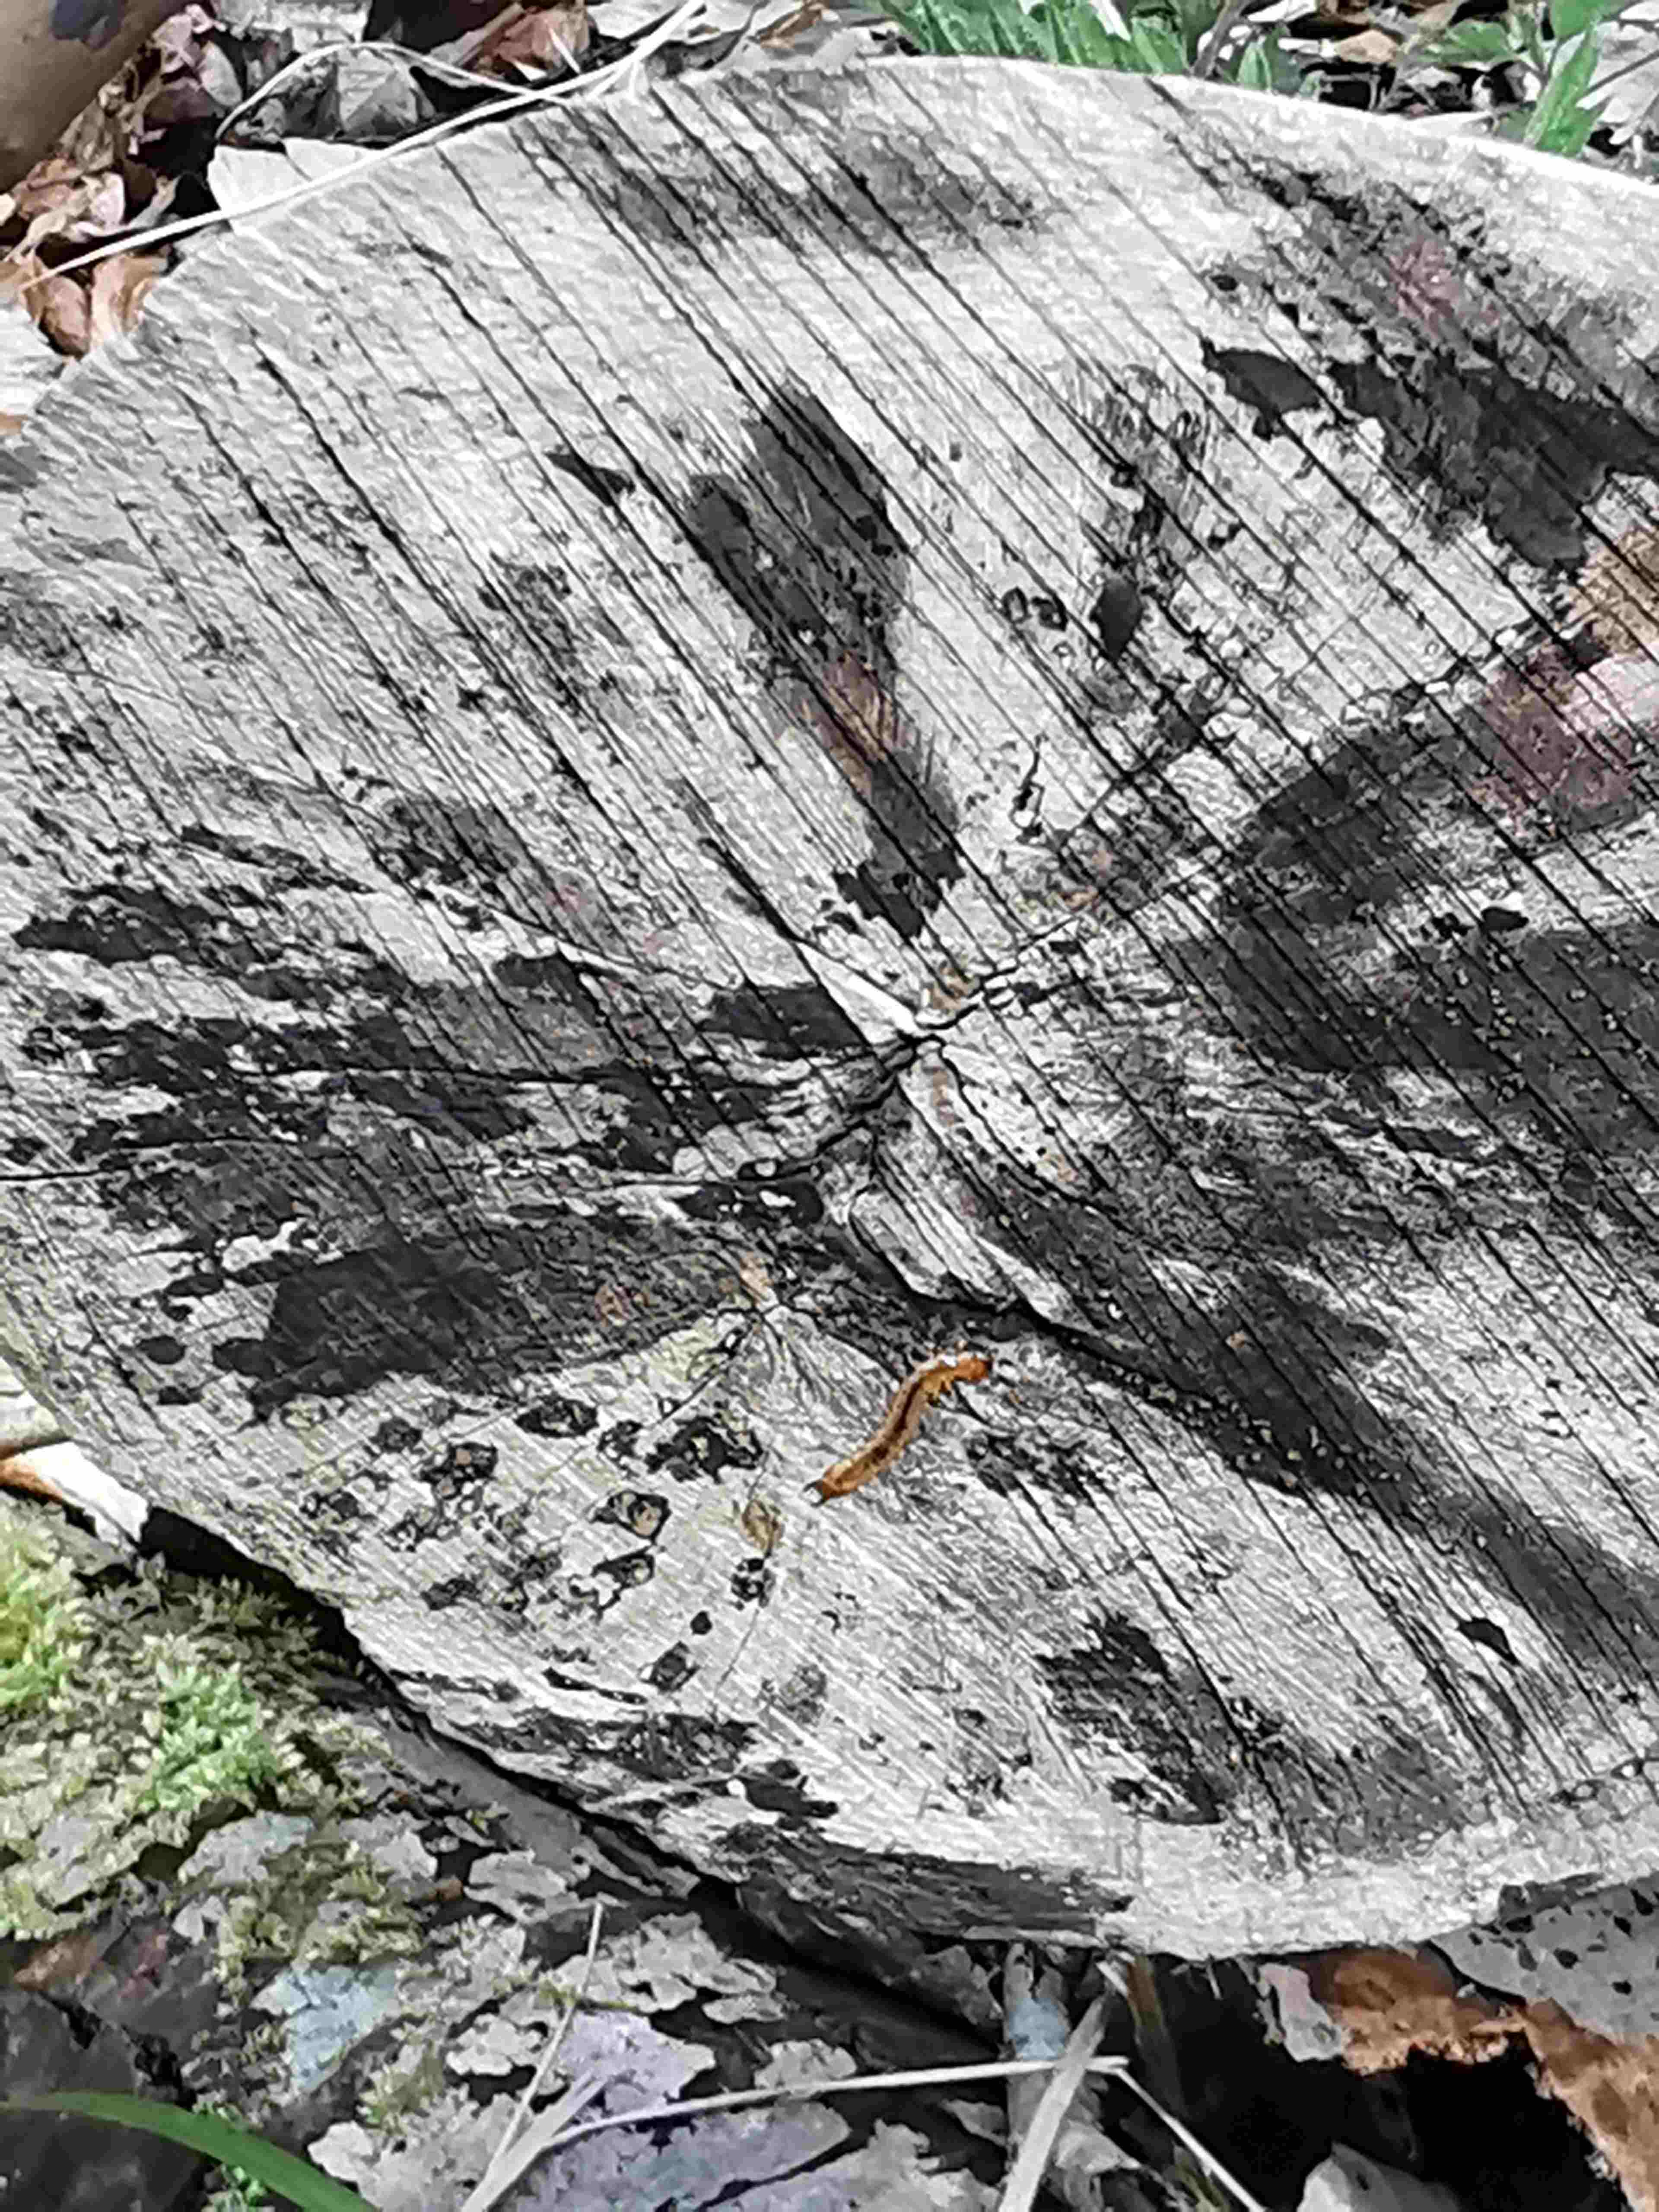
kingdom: Fungi
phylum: Ascomycota
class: Leotiomycetes
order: Helotiales
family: Helotiaceae
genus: Bispora
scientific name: Bispora pallescens
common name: måtte-snitskive
